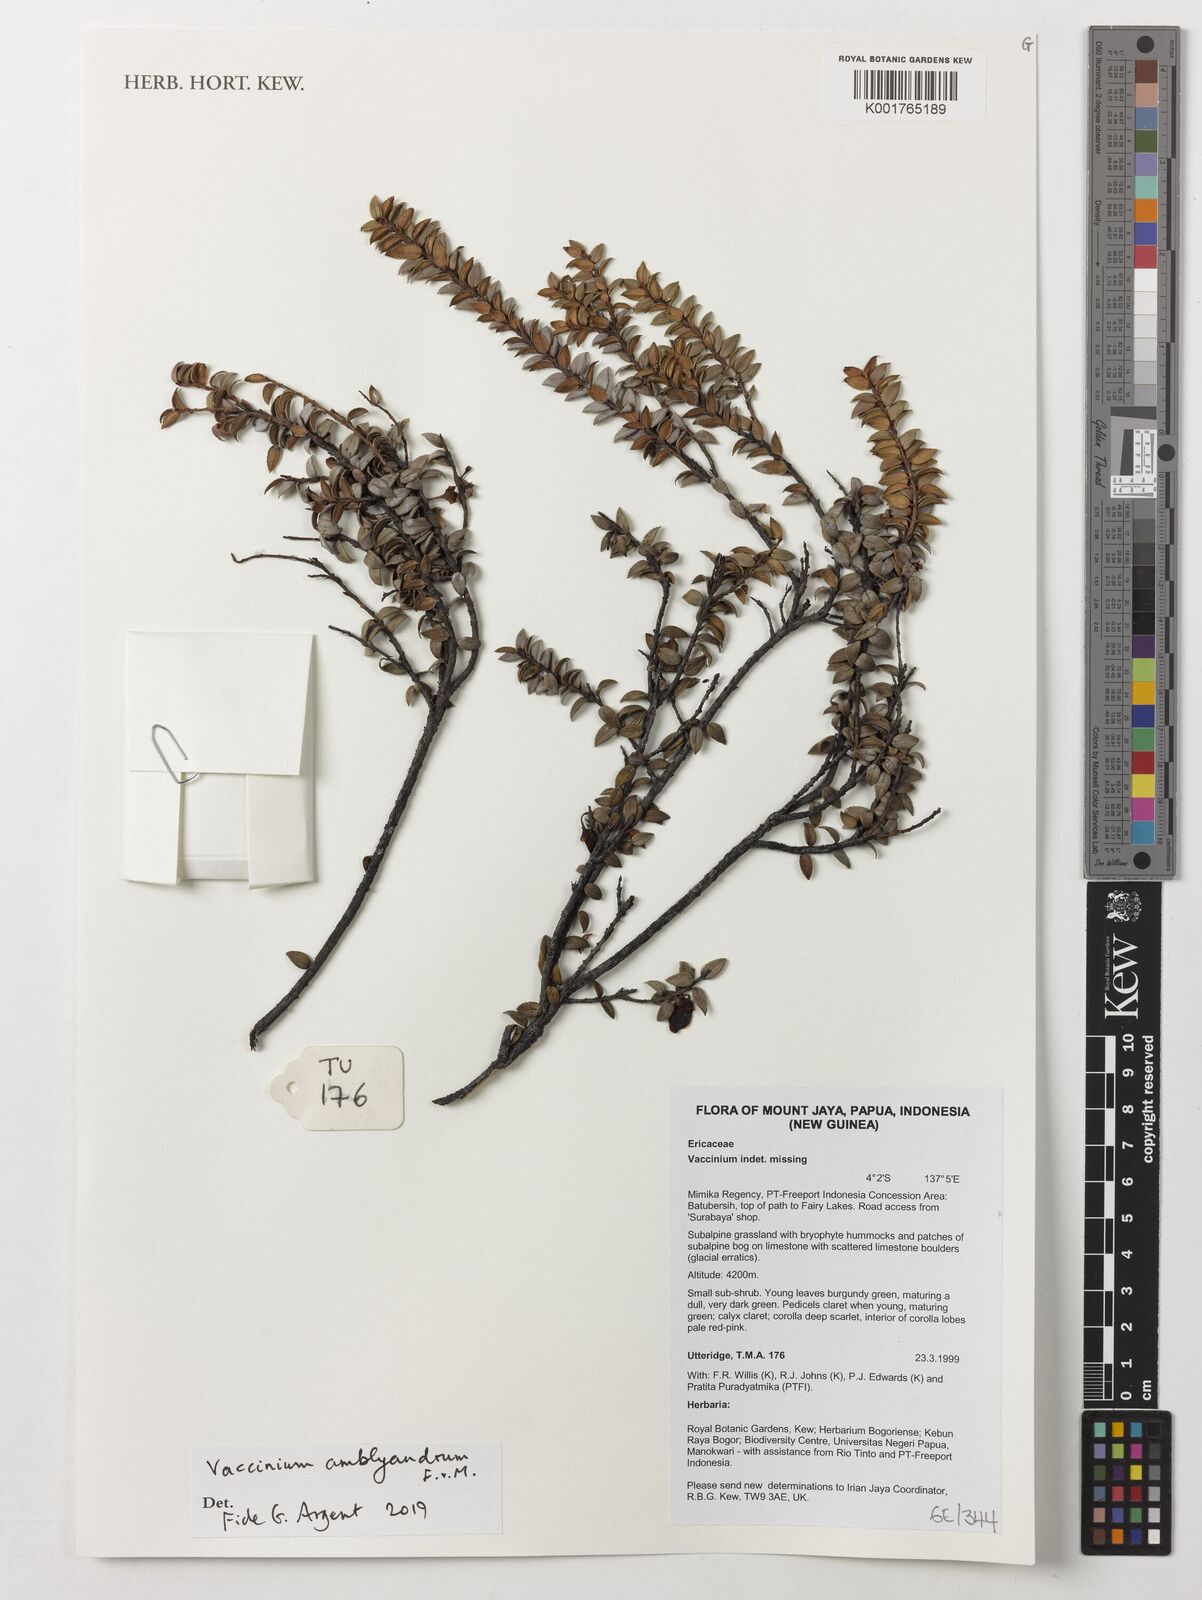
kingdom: Plantae
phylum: Tracheophyta
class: Magnoliopsida
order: Ericales
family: Ericaceae
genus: Vaccinium
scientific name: Vaccinium amblyandrum
